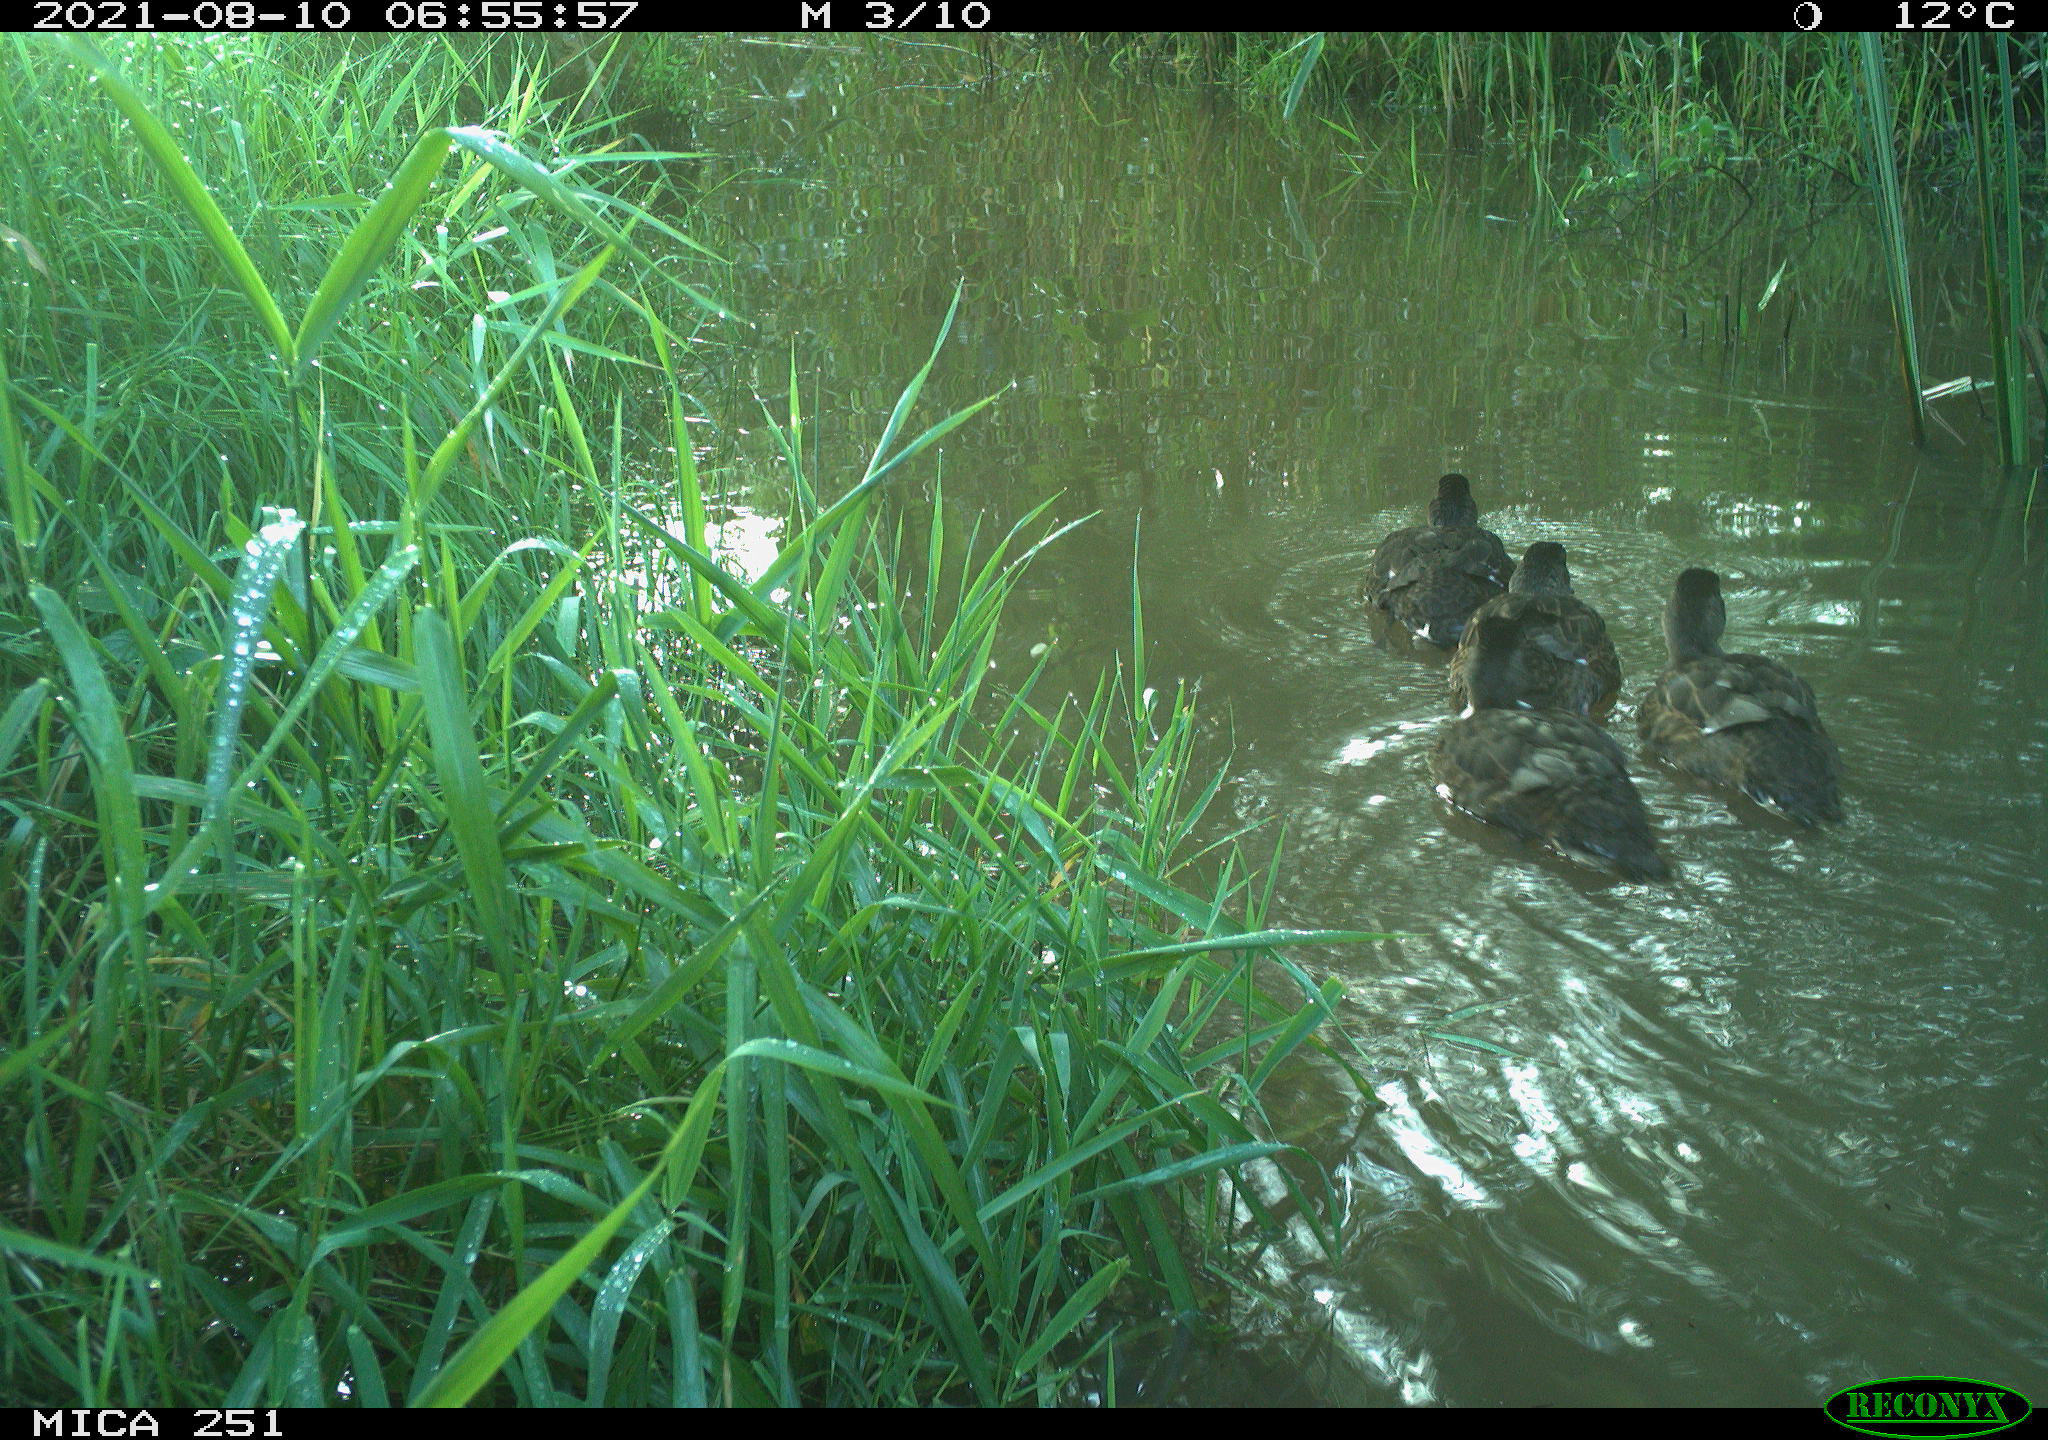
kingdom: Animalia
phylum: Chordata
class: Aves
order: Anseriformes
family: Anatidae
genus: Anas
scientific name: Anas platyrhynchos
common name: Mallard
